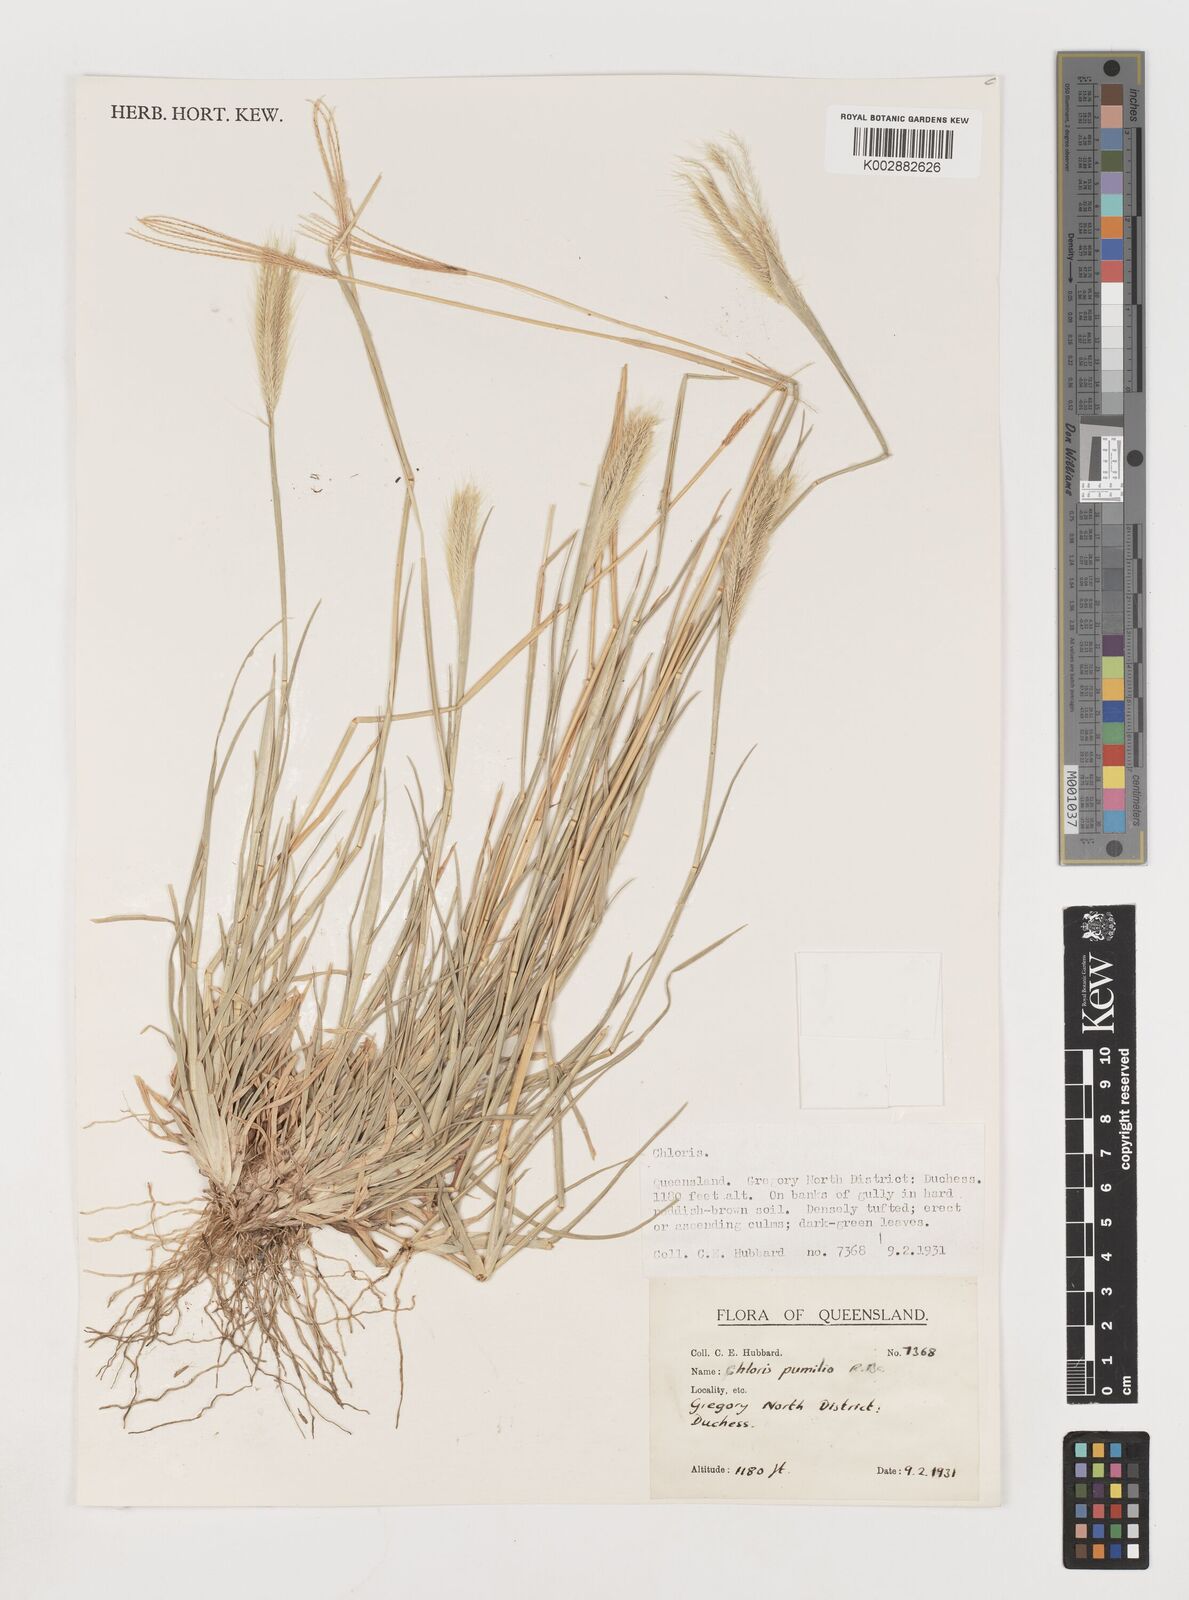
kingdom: Plantae
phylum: Tracheophyta
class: Liliopsida
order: Poales
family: Poaceae
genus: Chloris
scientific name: Chloris pumilio
